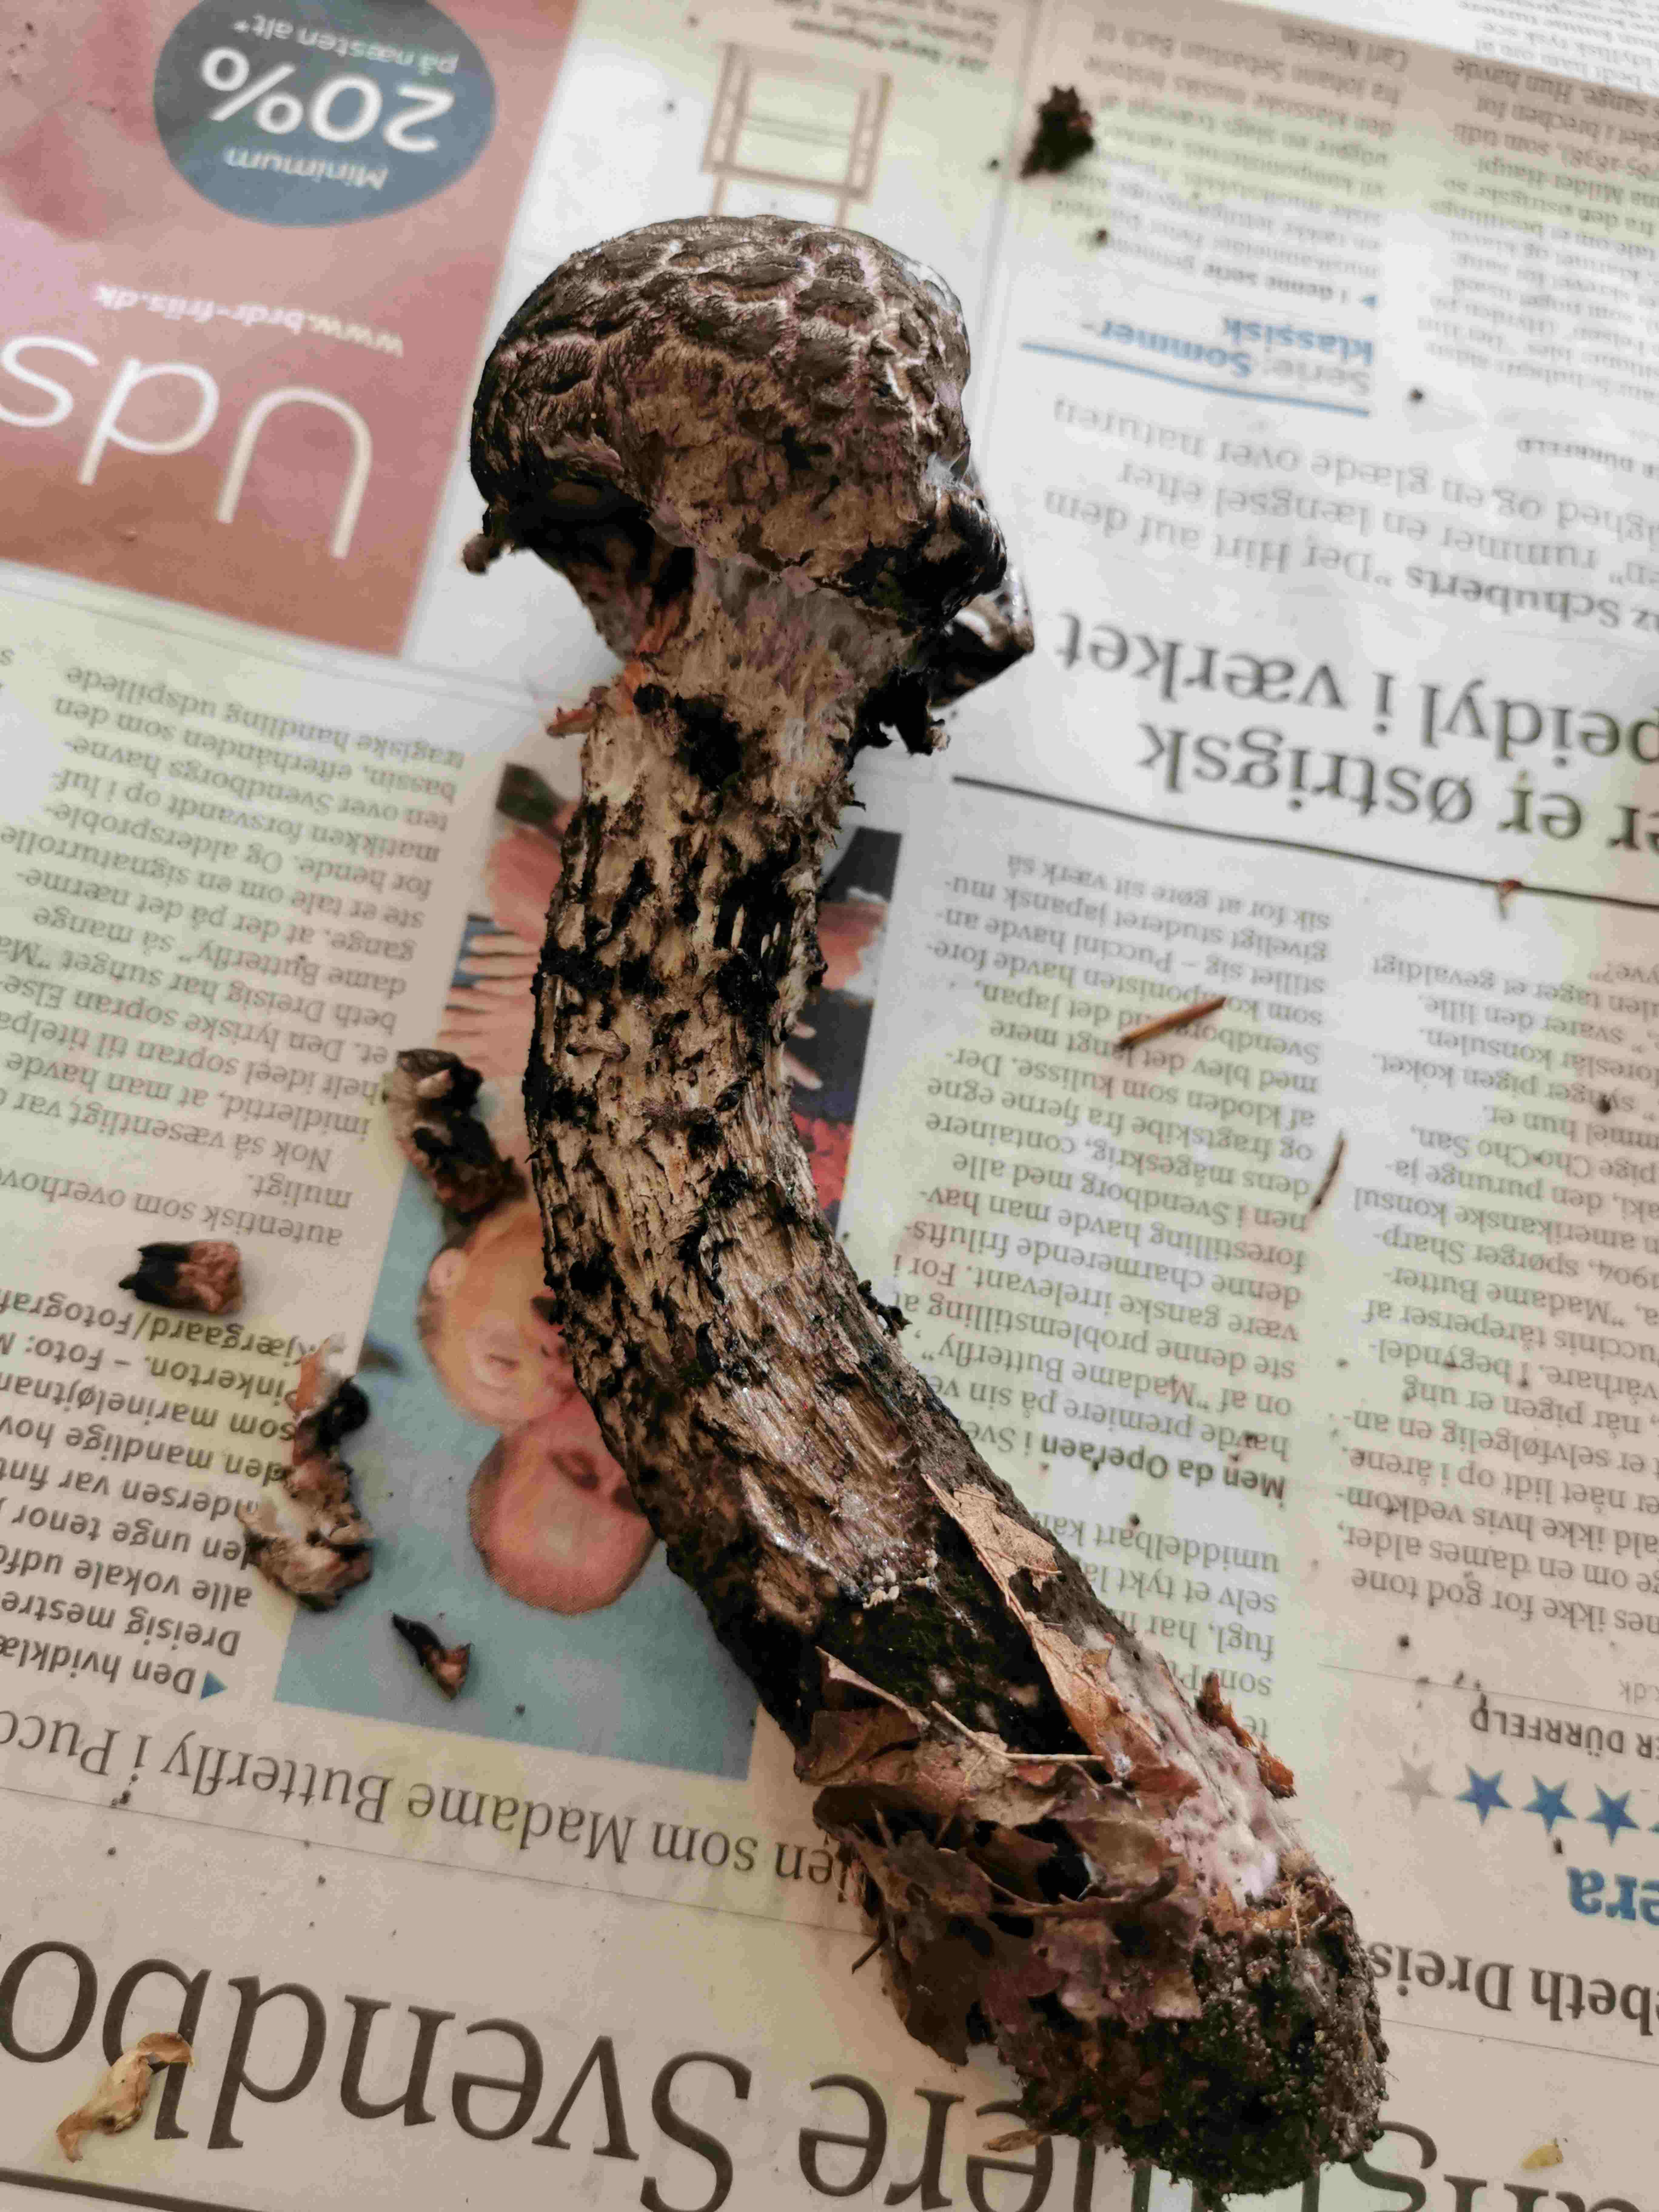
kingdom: Fungi
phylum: Basidiomycota
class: Agaricomycetes
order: Boletales
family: Boletaceae
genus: Strobilomyces
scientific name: Strobilomyces strobilaceus
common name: koglerørhat
